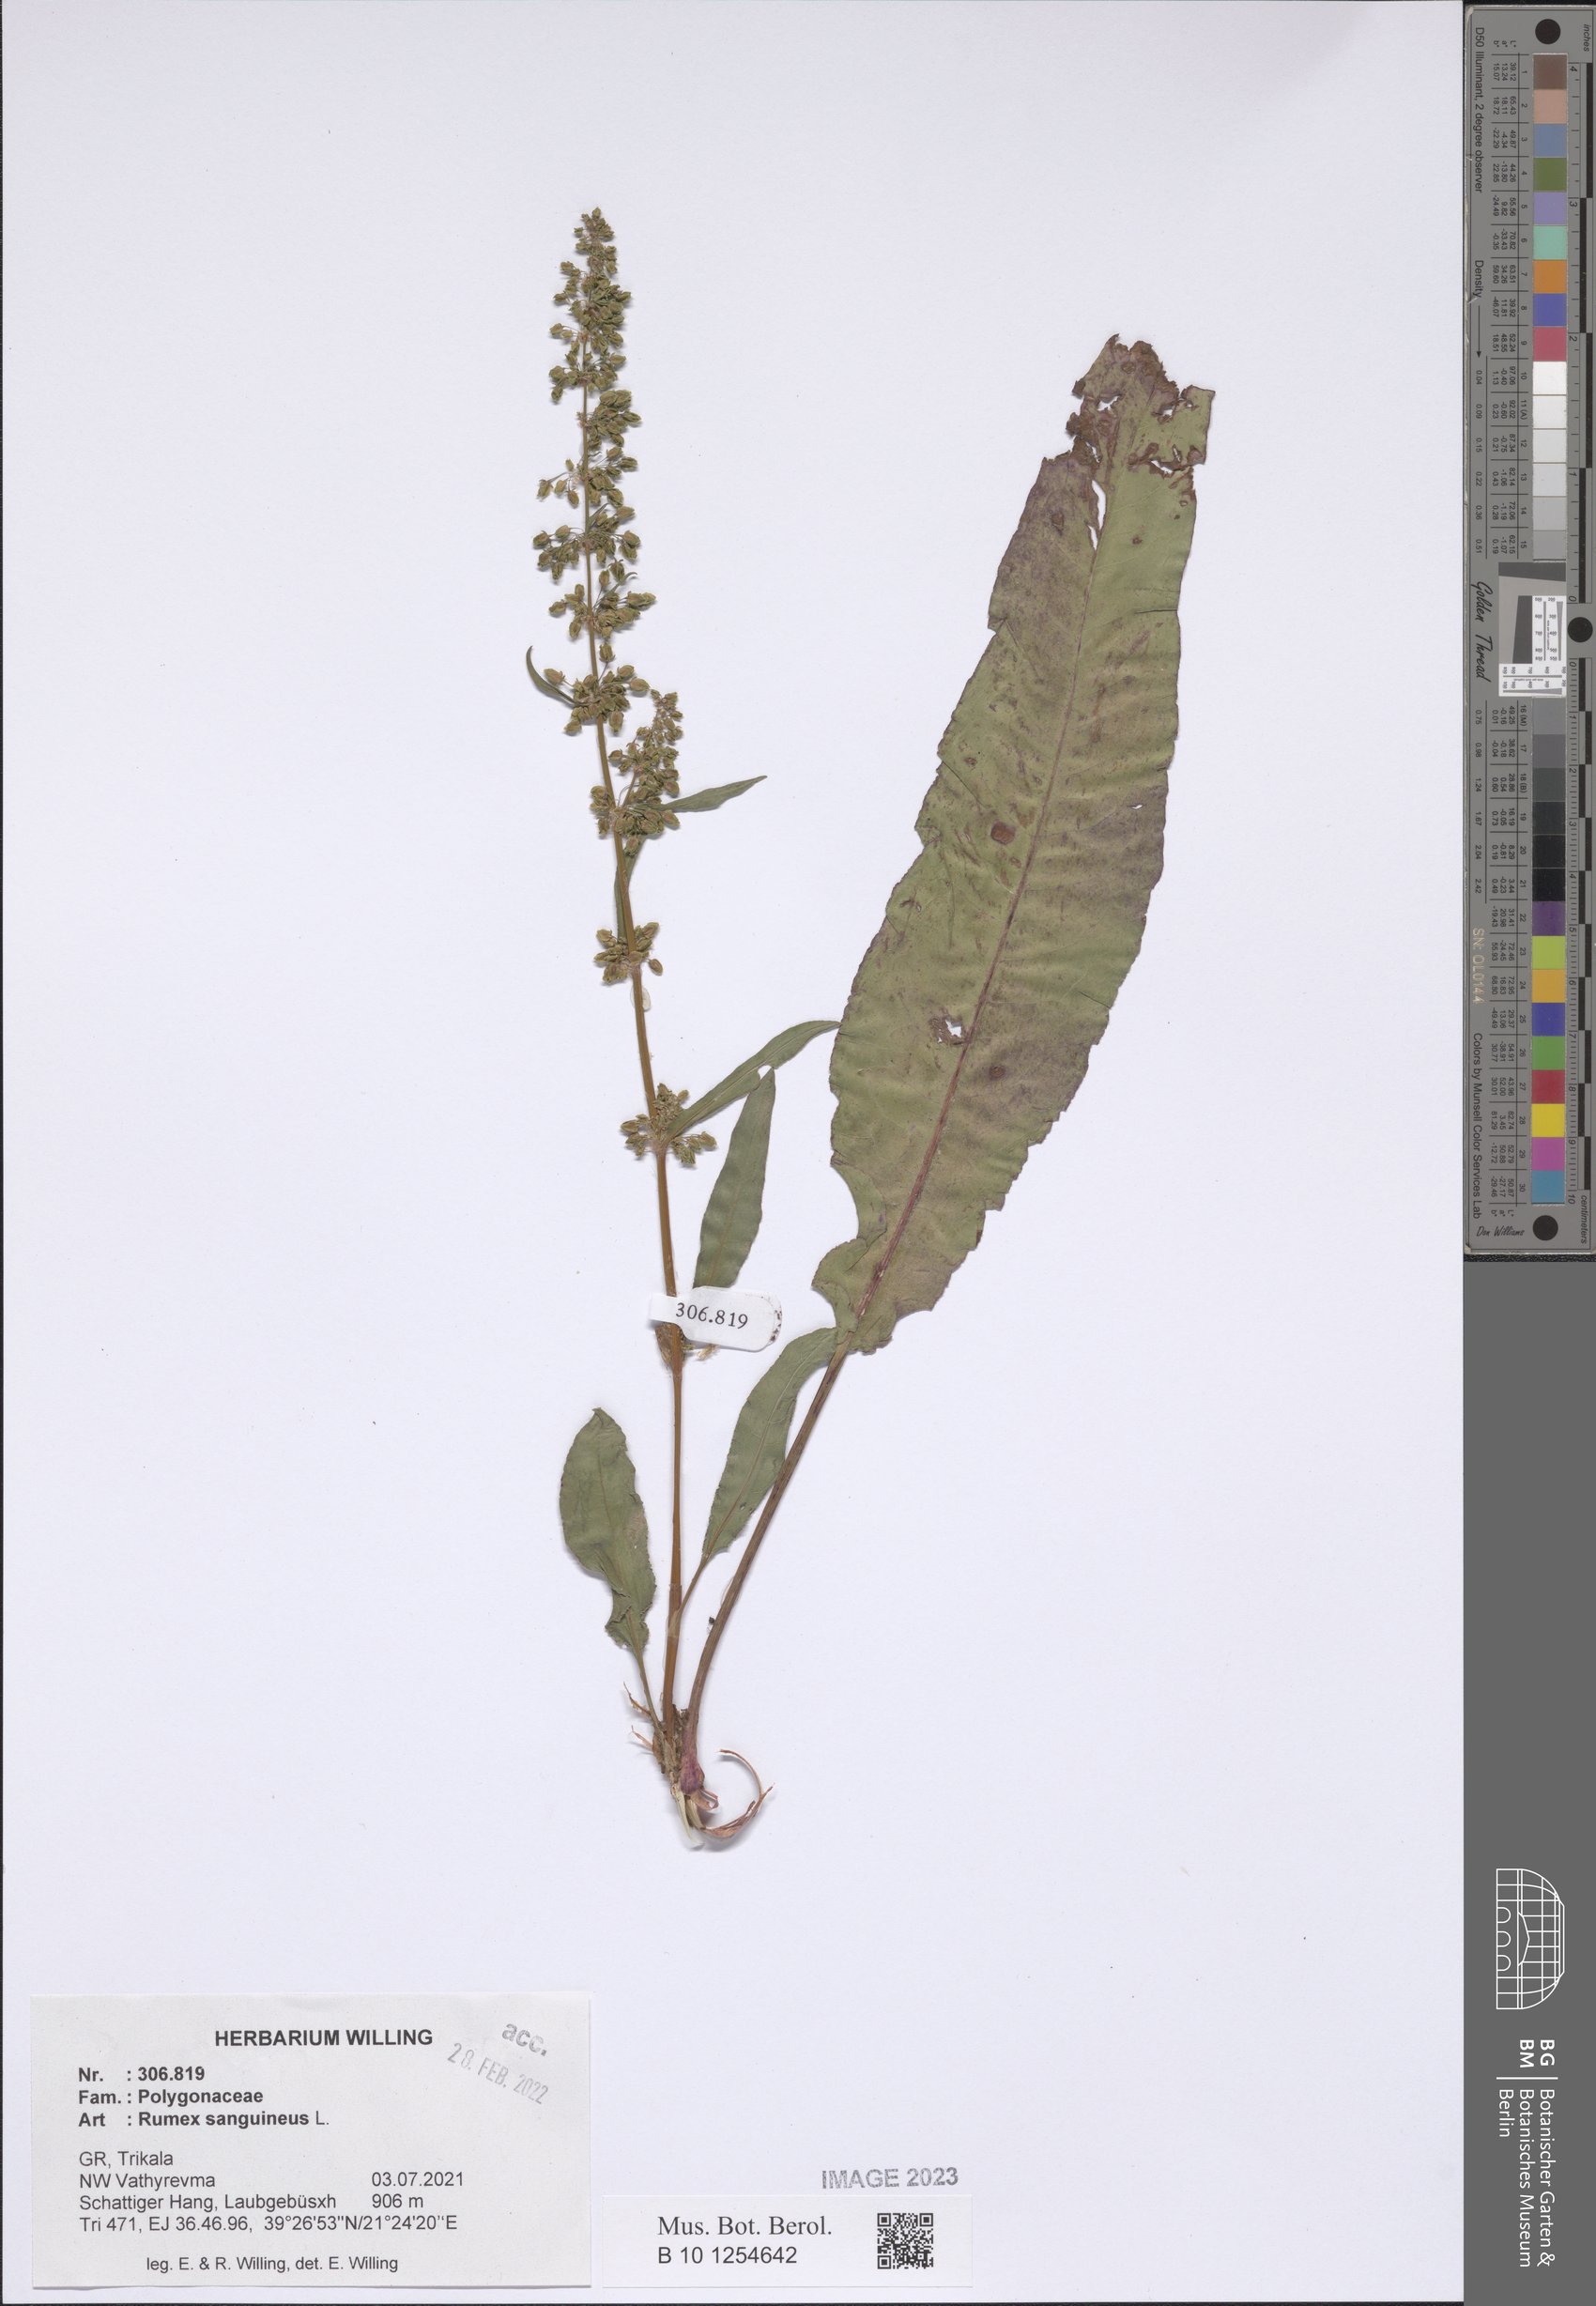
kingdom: Plantae
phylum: Tracheophyta
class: Magnoliopsida
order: Caryophyllales
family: Polygonaceae
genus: Rumex
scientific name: Rumex sanguineus
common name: Wood dock
